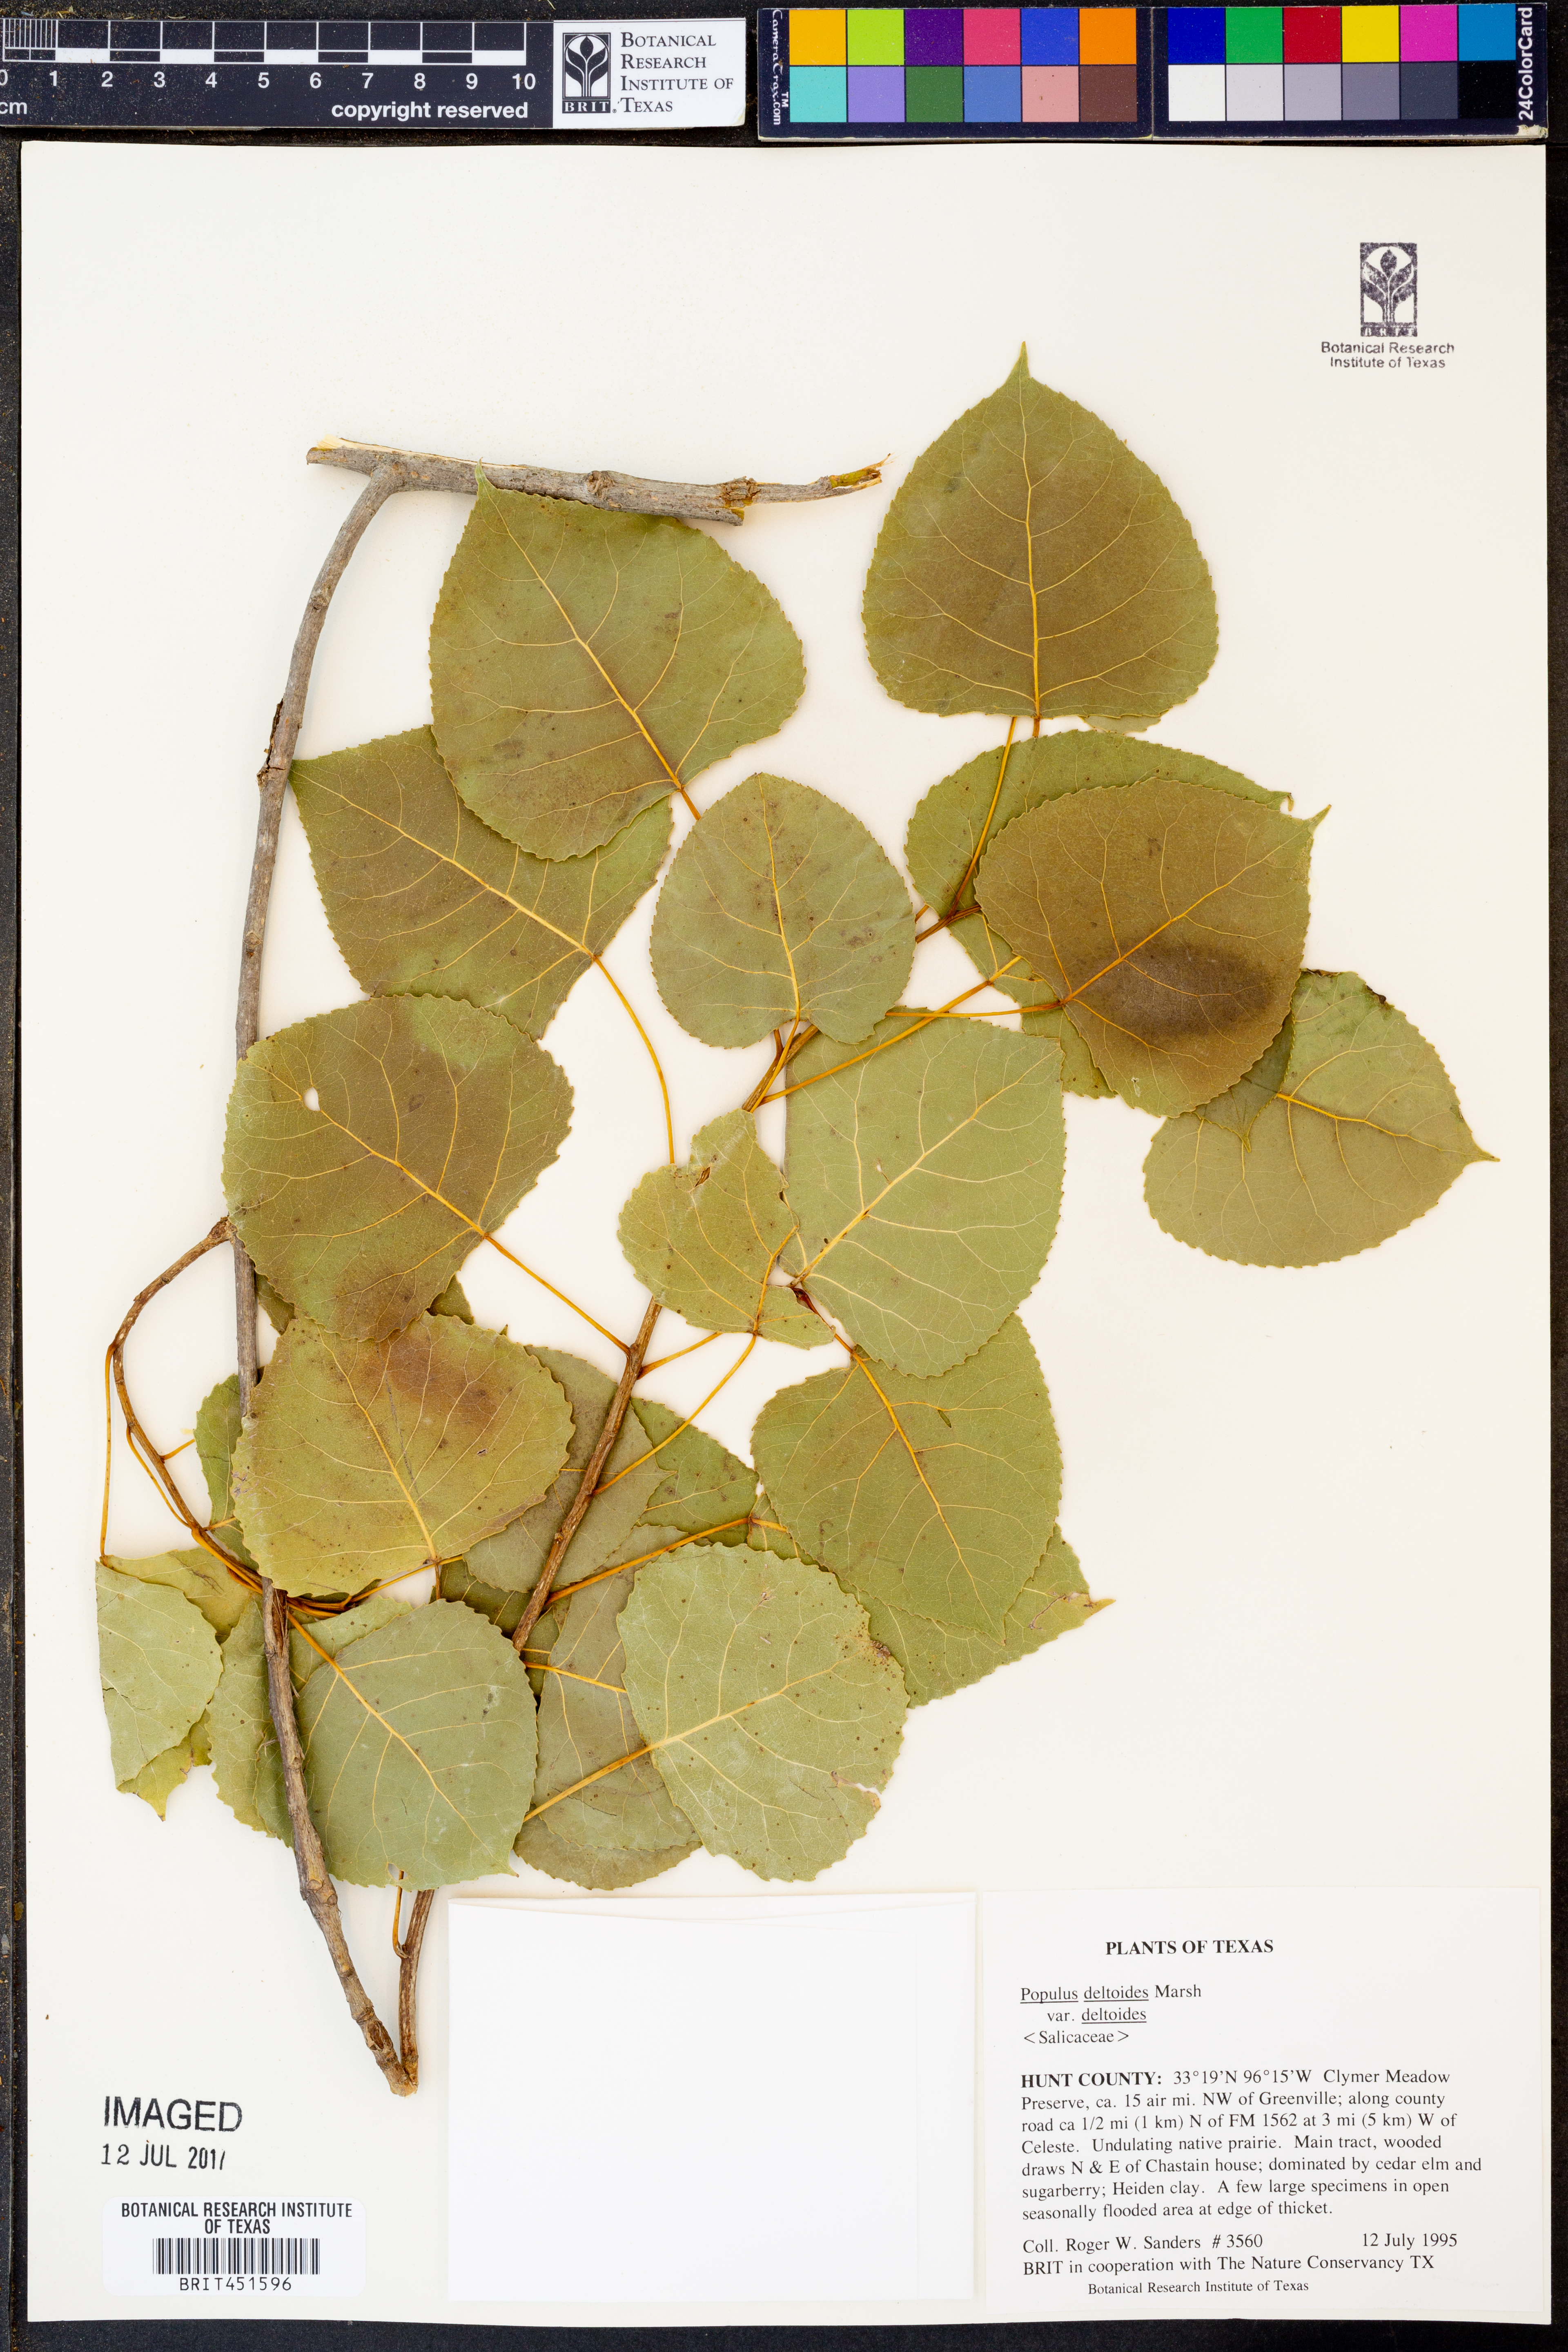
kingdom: Plantae
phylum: Tracheophyta
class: Magnoliopsida
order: Malpighiales
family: Salicaceae
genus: Populus
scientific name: Populus deltoides
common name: Eastern cottonwood
